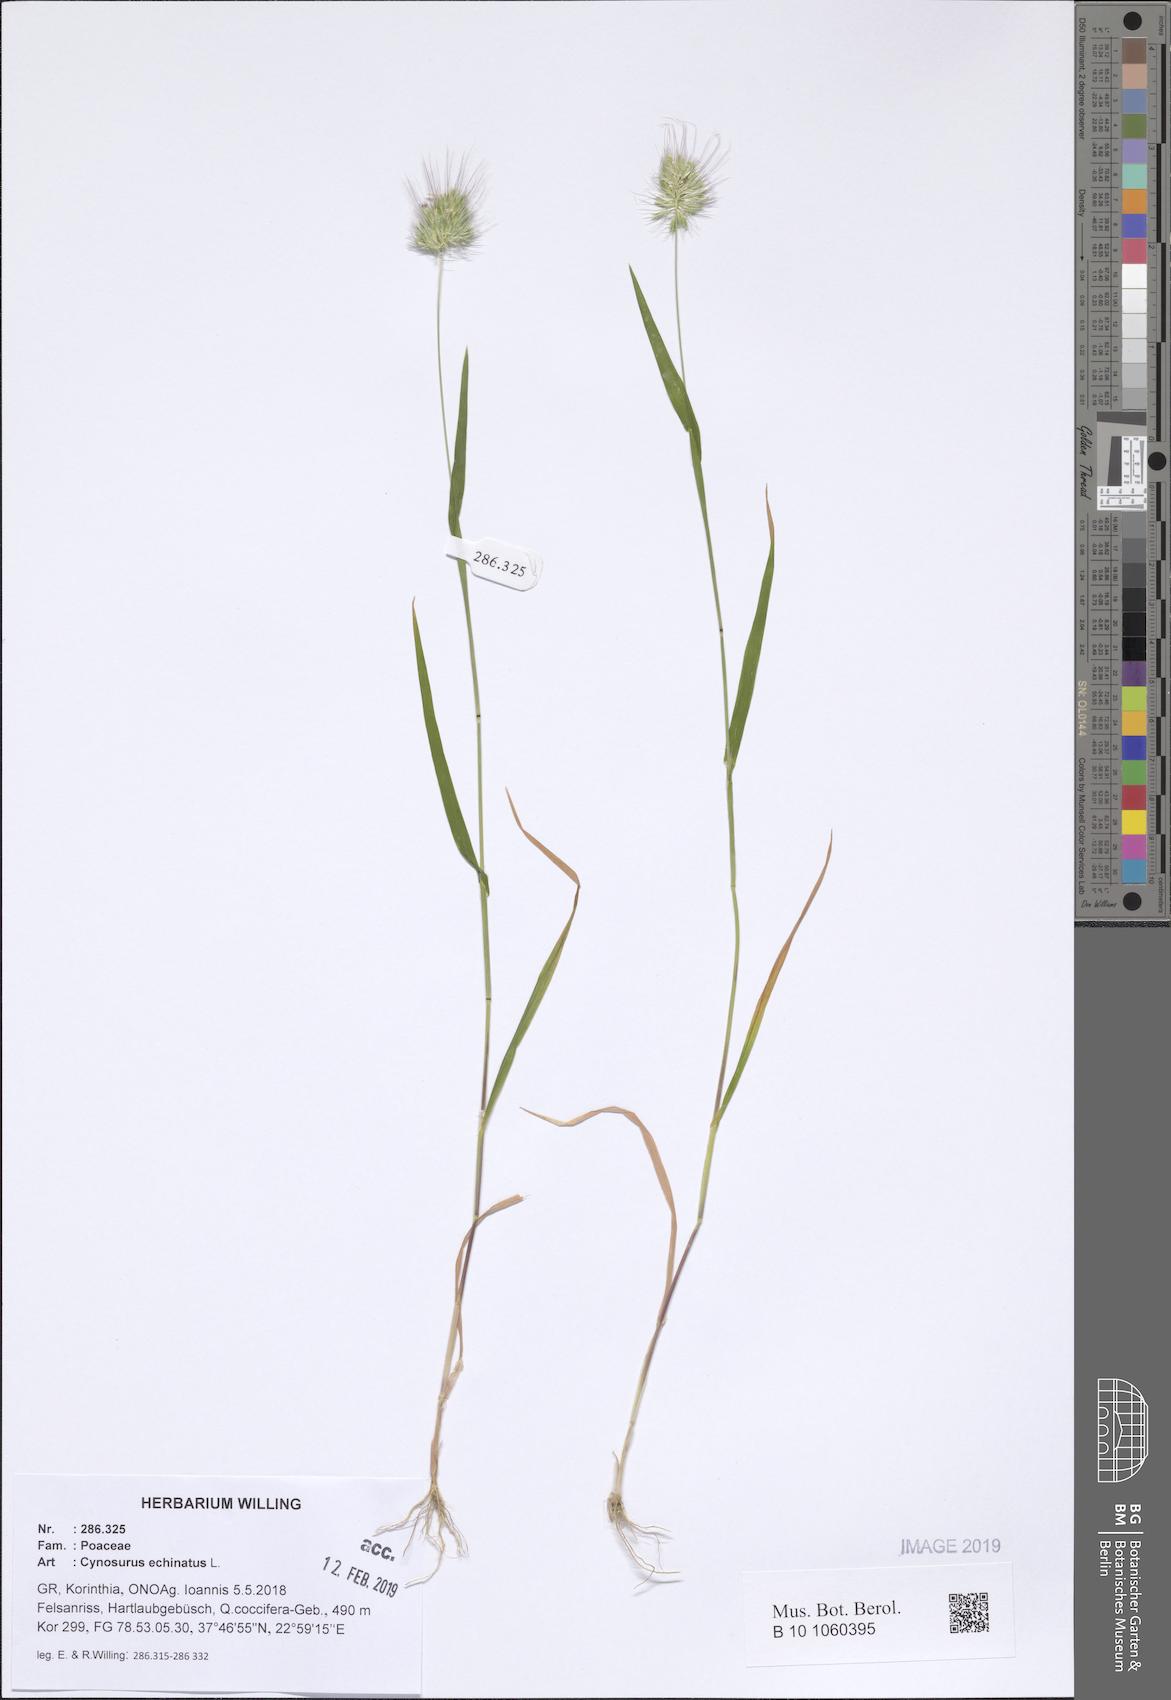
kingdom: Plantae
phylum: Tracheophyta
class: Liliopsida
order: Poales
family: Poaceae
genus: Cynosurus
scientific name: Cynosurus echinatus
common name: Rough dog's-tail
